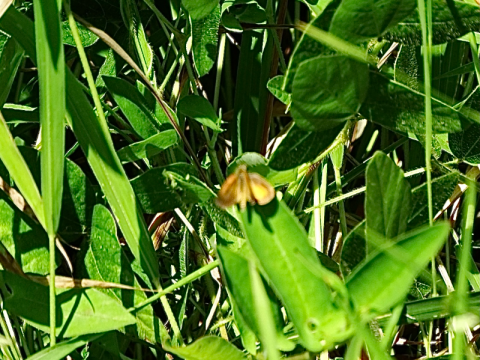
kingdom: Animalia
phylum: Arthropoda
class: Insecta
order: Lepidoptera
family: Hesperiidae
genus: Ancyloxypha
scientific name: Ancyloxypha numitor
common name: Least Skipper
